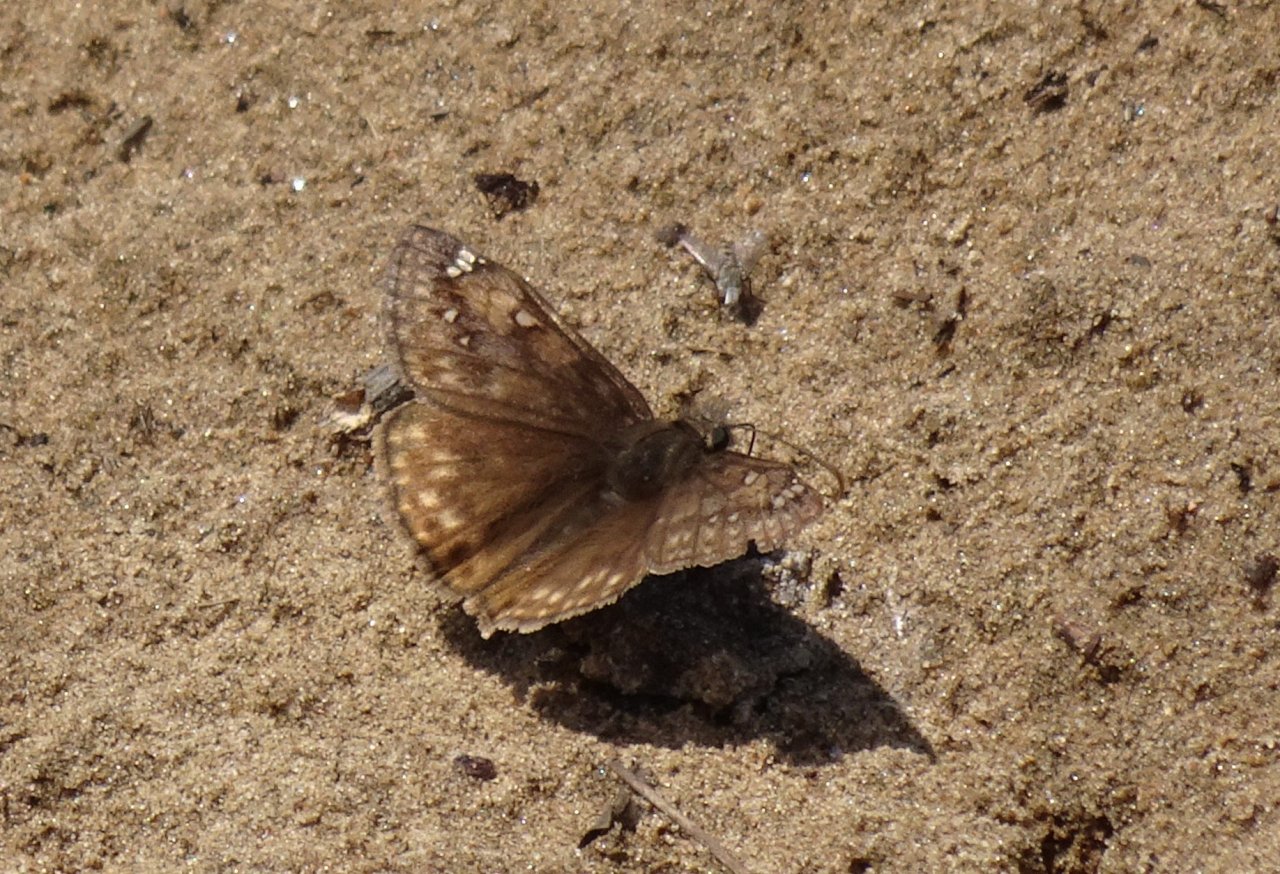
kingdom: Animalia
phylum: Arthropoda
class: Insecta
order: Lepidoptera
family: Hesperiidae
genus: Gesta
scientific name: Gesta
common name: Juvenal's Duskywing
